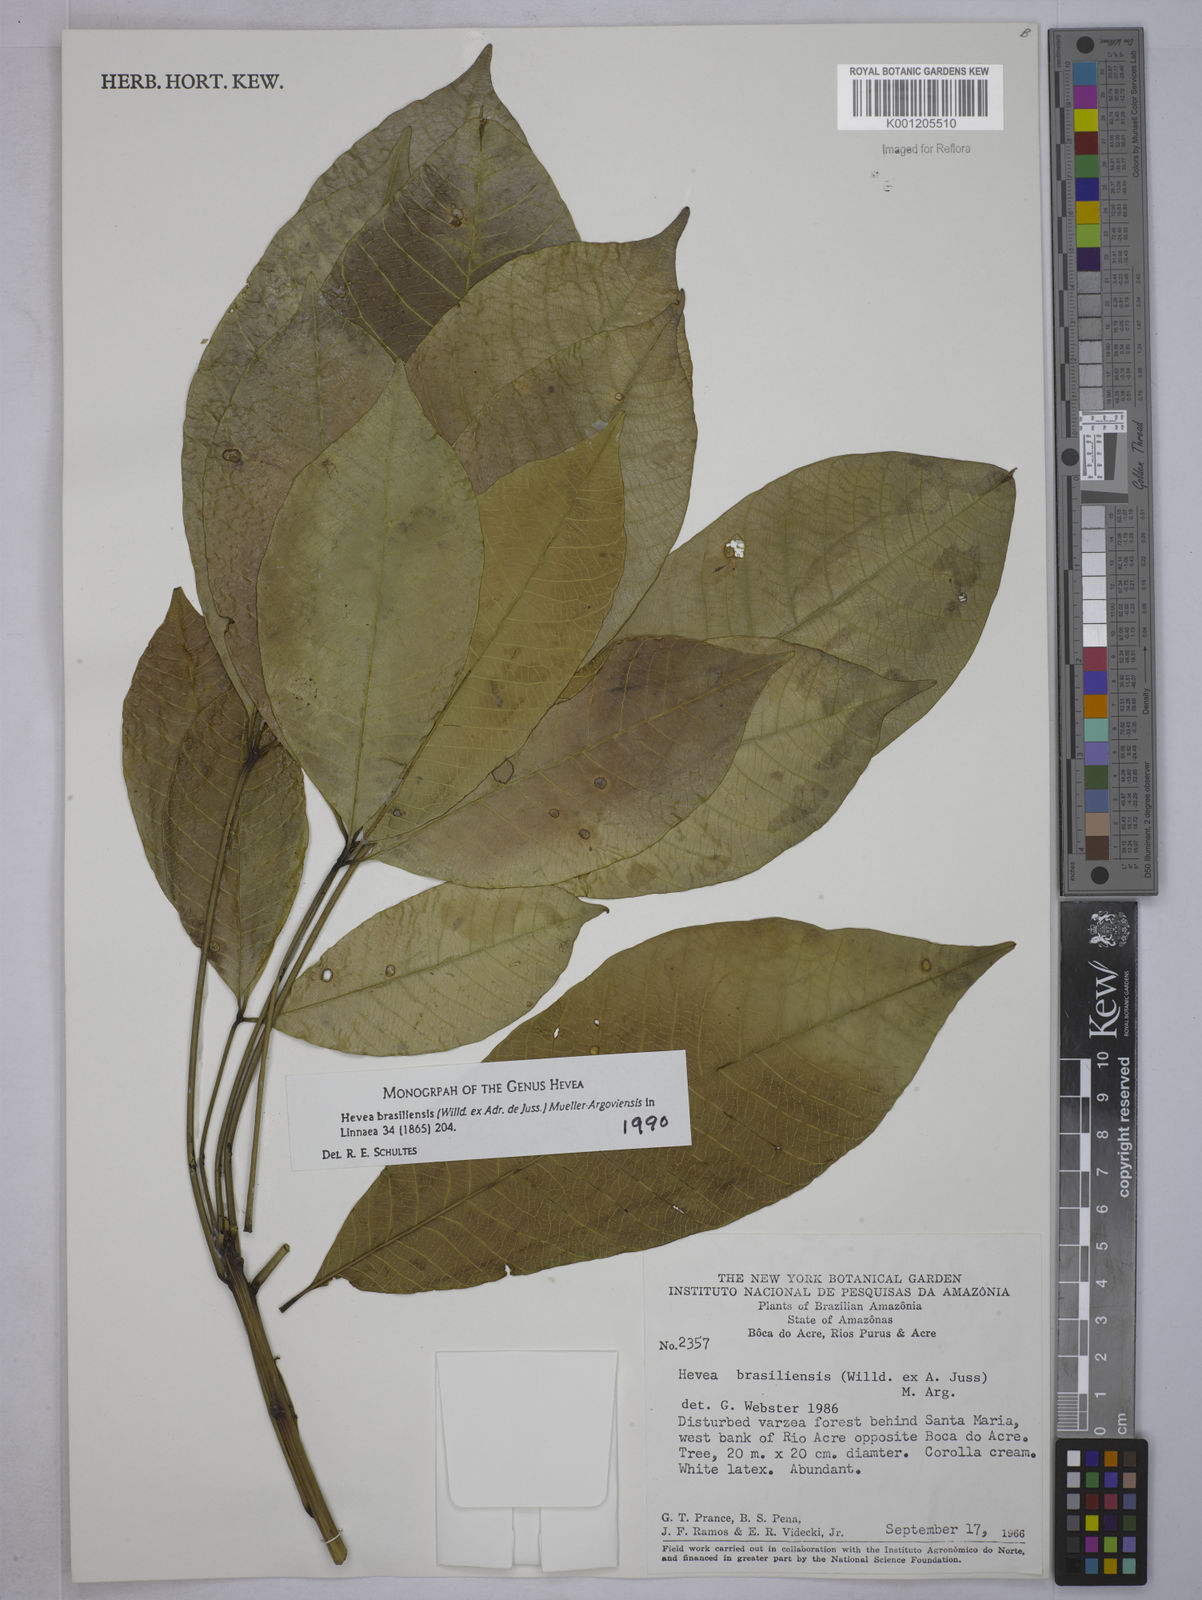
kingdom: Plantae
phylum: Tracheophyta
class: Magnoliopsida
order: Malpighiales
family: Euphorbiaceae
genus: Hevea
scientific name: Hevea
